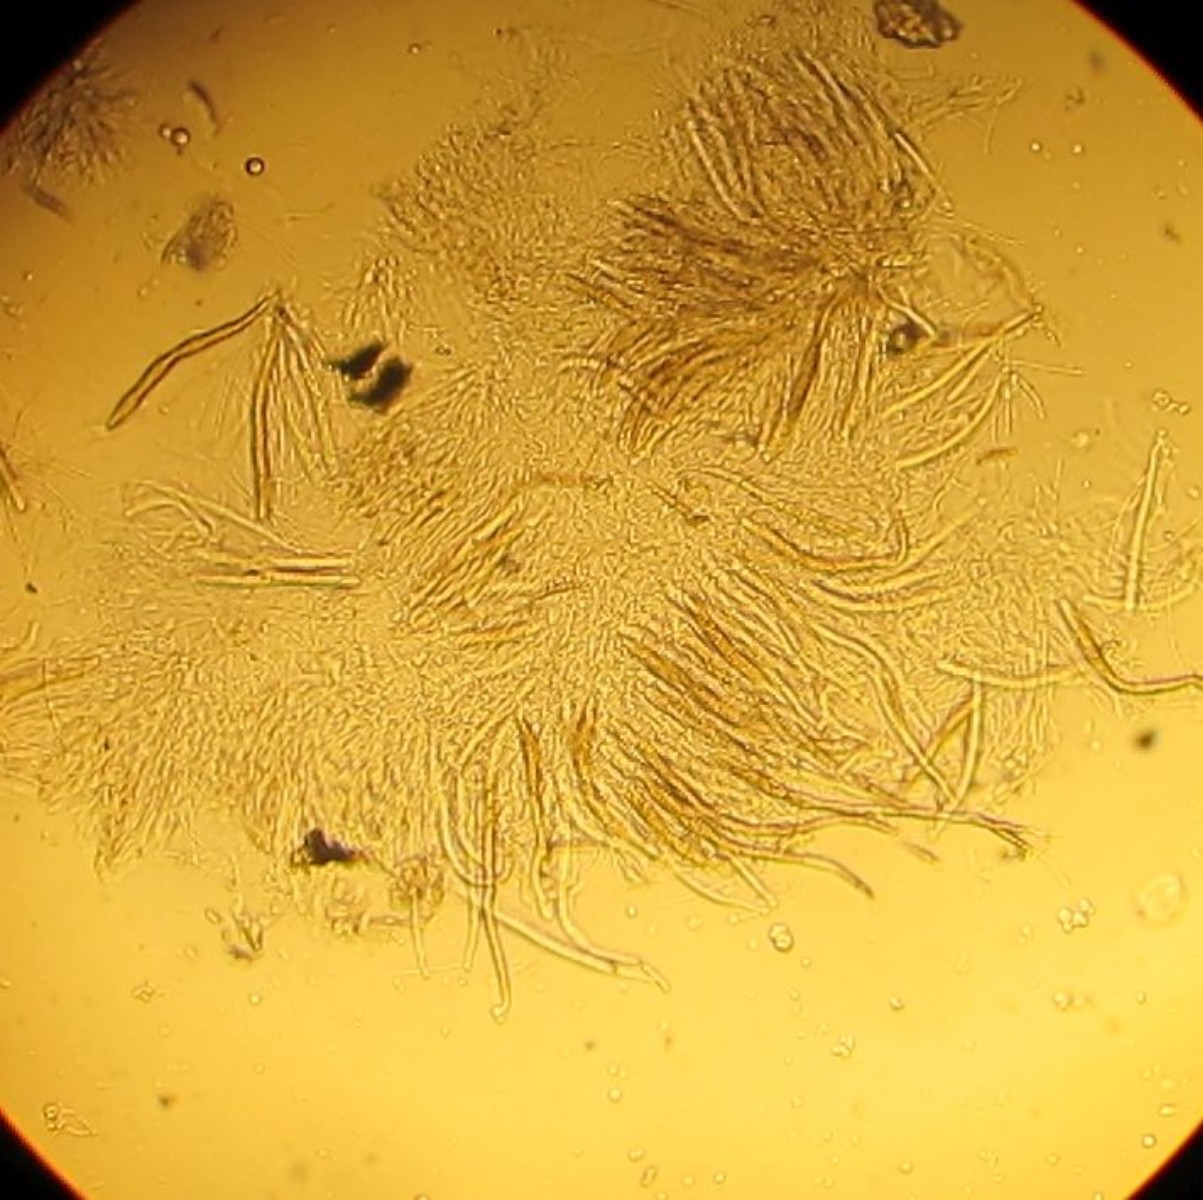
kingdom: Fungi
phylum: Ascomycota
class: Dothideomycetes
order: Pleosporales
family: Leptosphaeriaceae
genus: Leptosphaeria
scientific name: Leptosphaeria acuta
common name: spids kulkegle
